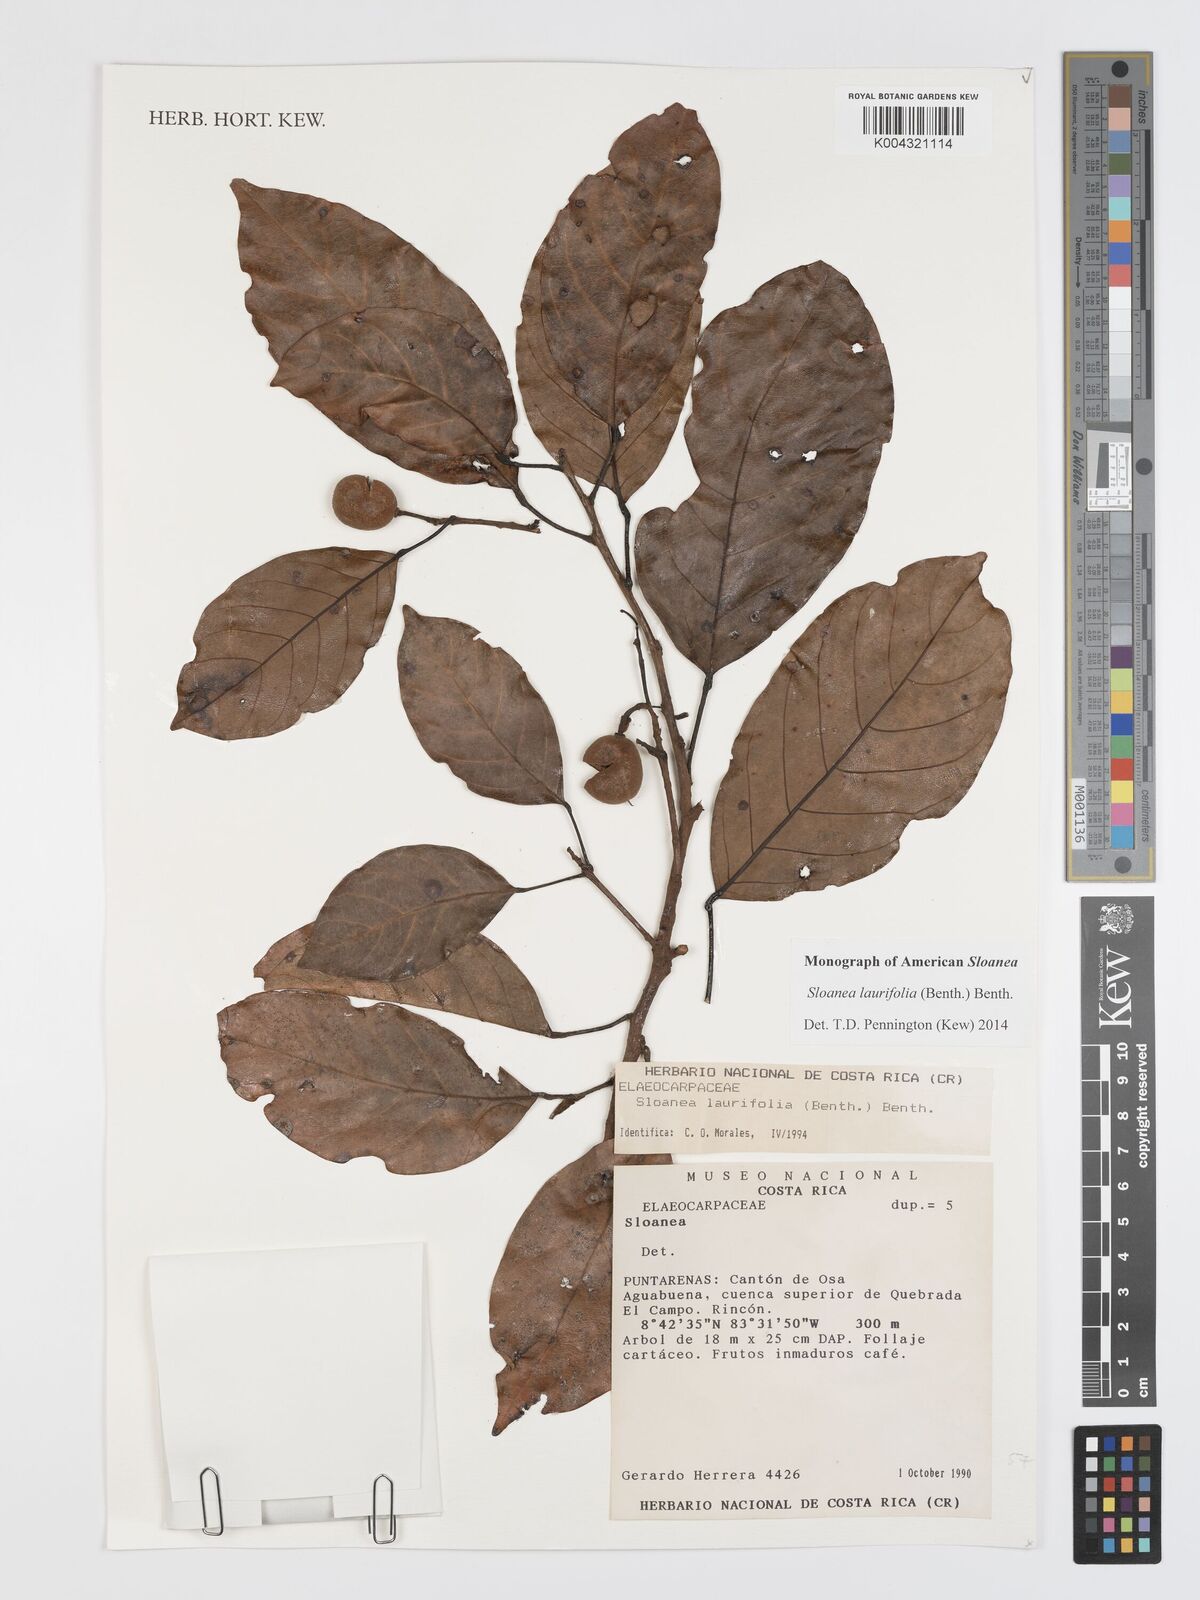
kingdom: Plantae
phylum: Tracheophyta
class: Magnoliopsida
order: Oxalidales
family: Elaeocarpaceae
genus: Sloanea
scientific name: Sloanea
